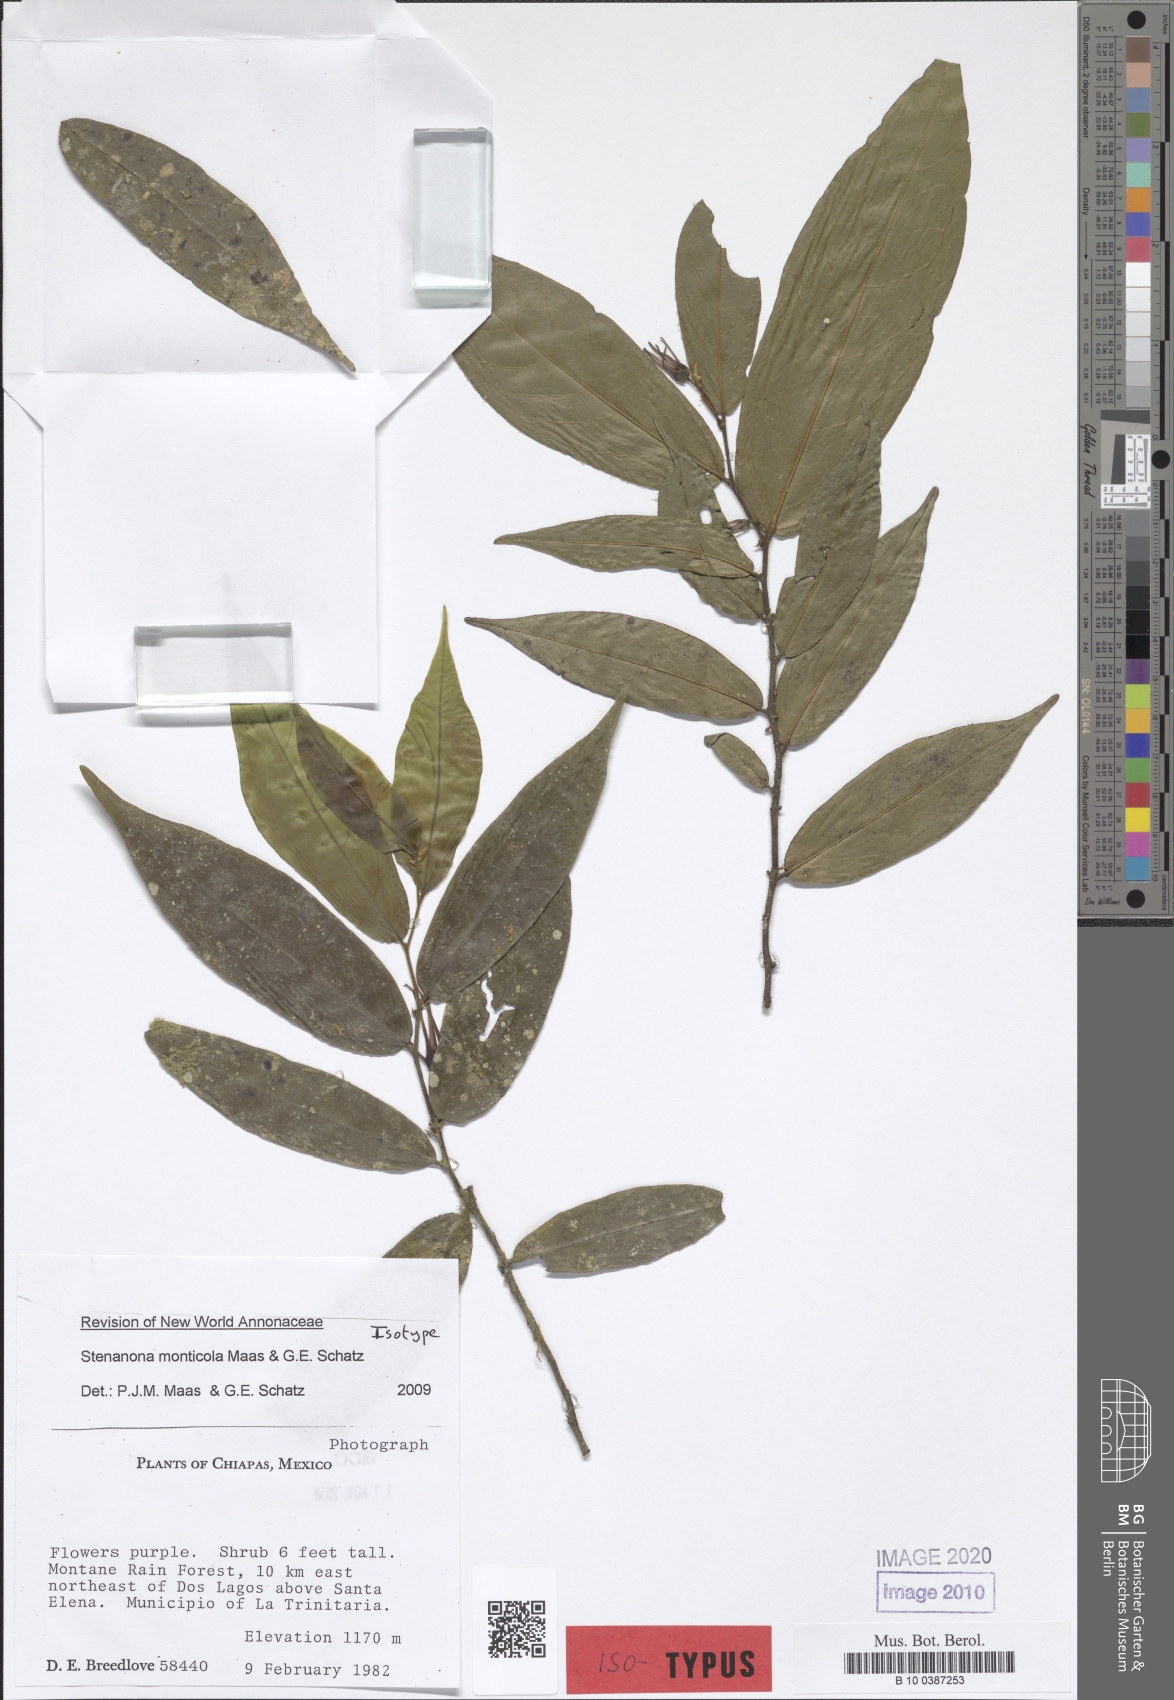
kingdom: Plantae
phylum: Tracheophyta
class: Magnoliopsida
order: Magnoliales
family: Annonaceae
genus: Stenanona
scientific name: Stenanona monticola
